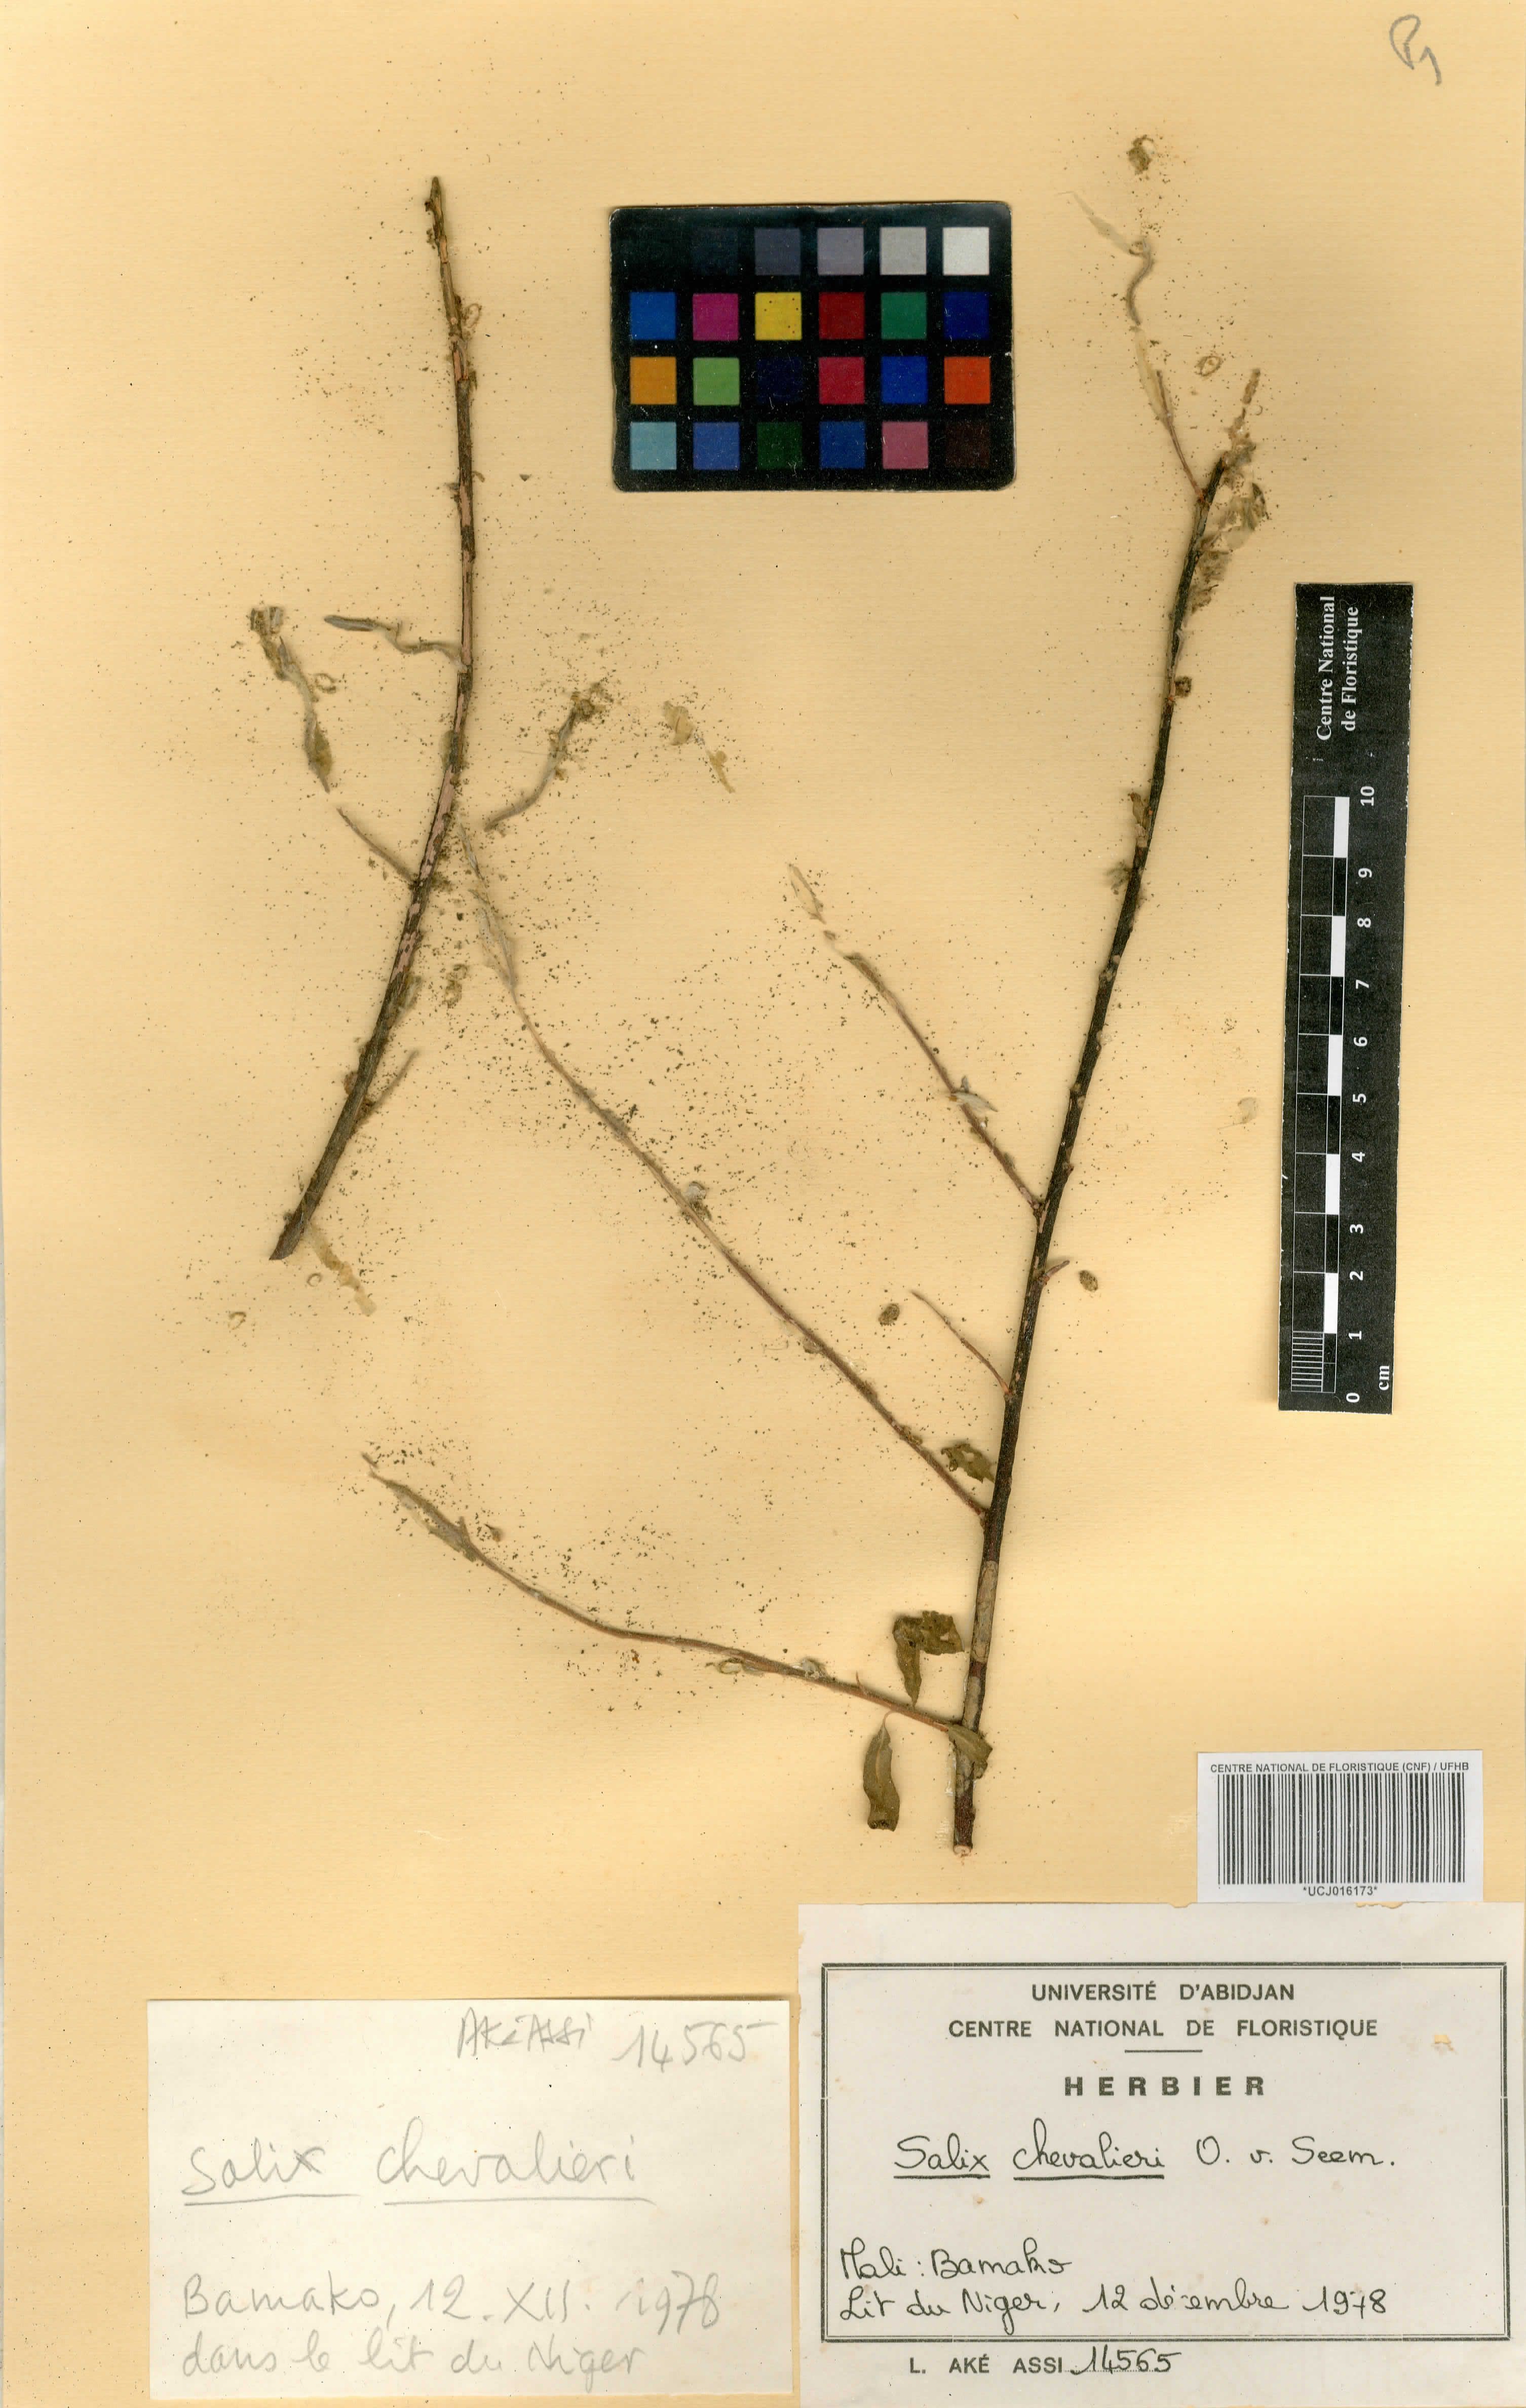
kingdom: Plantae
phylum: Tracheophyta
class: Magnoliopsida
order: Malpighiales
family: Salicaceae
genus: Salix
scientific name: Salix chevalieri
